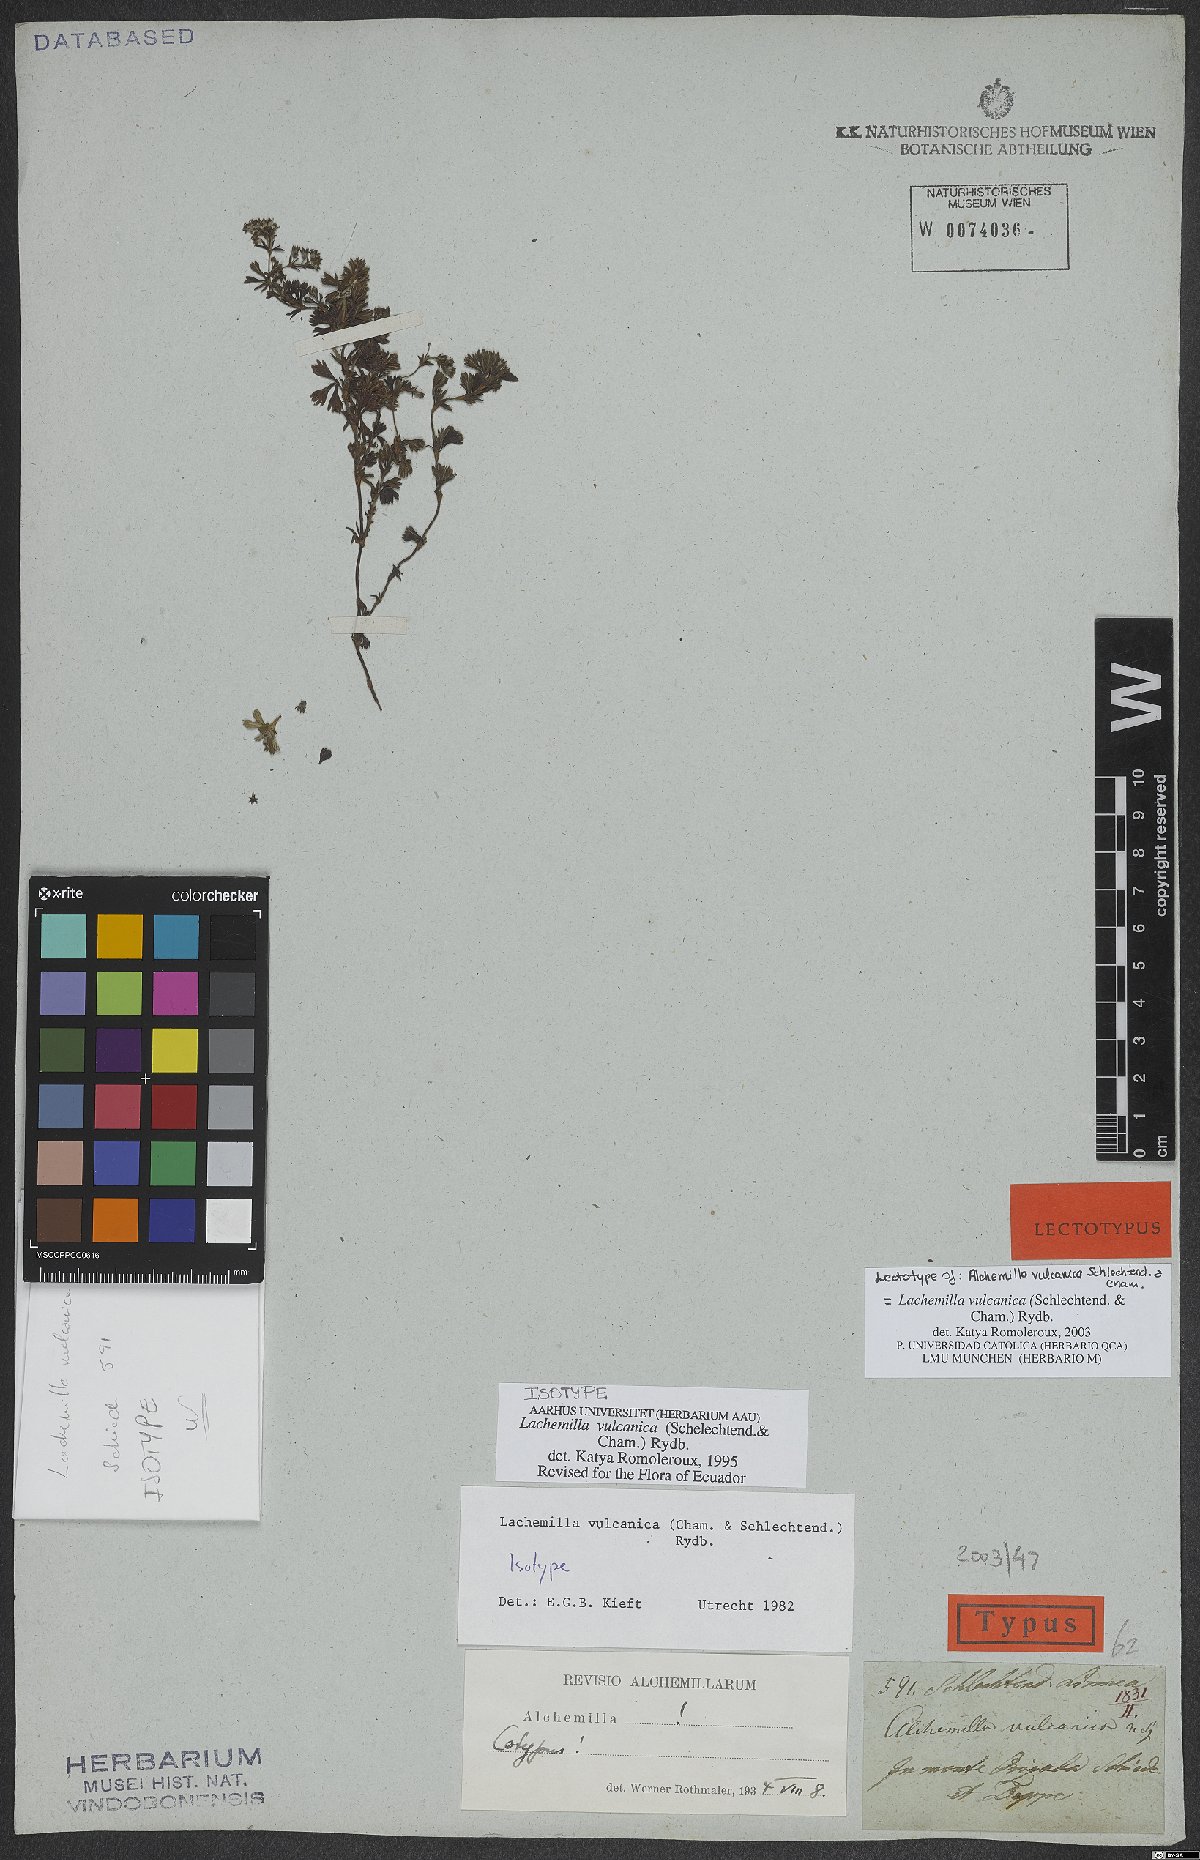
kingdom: Plantae
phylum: Tracheophyta
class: Magnoliopsida
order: Rosales
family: Rosaceae
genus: Lachemilla
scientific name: Lachemilla vulcanica
